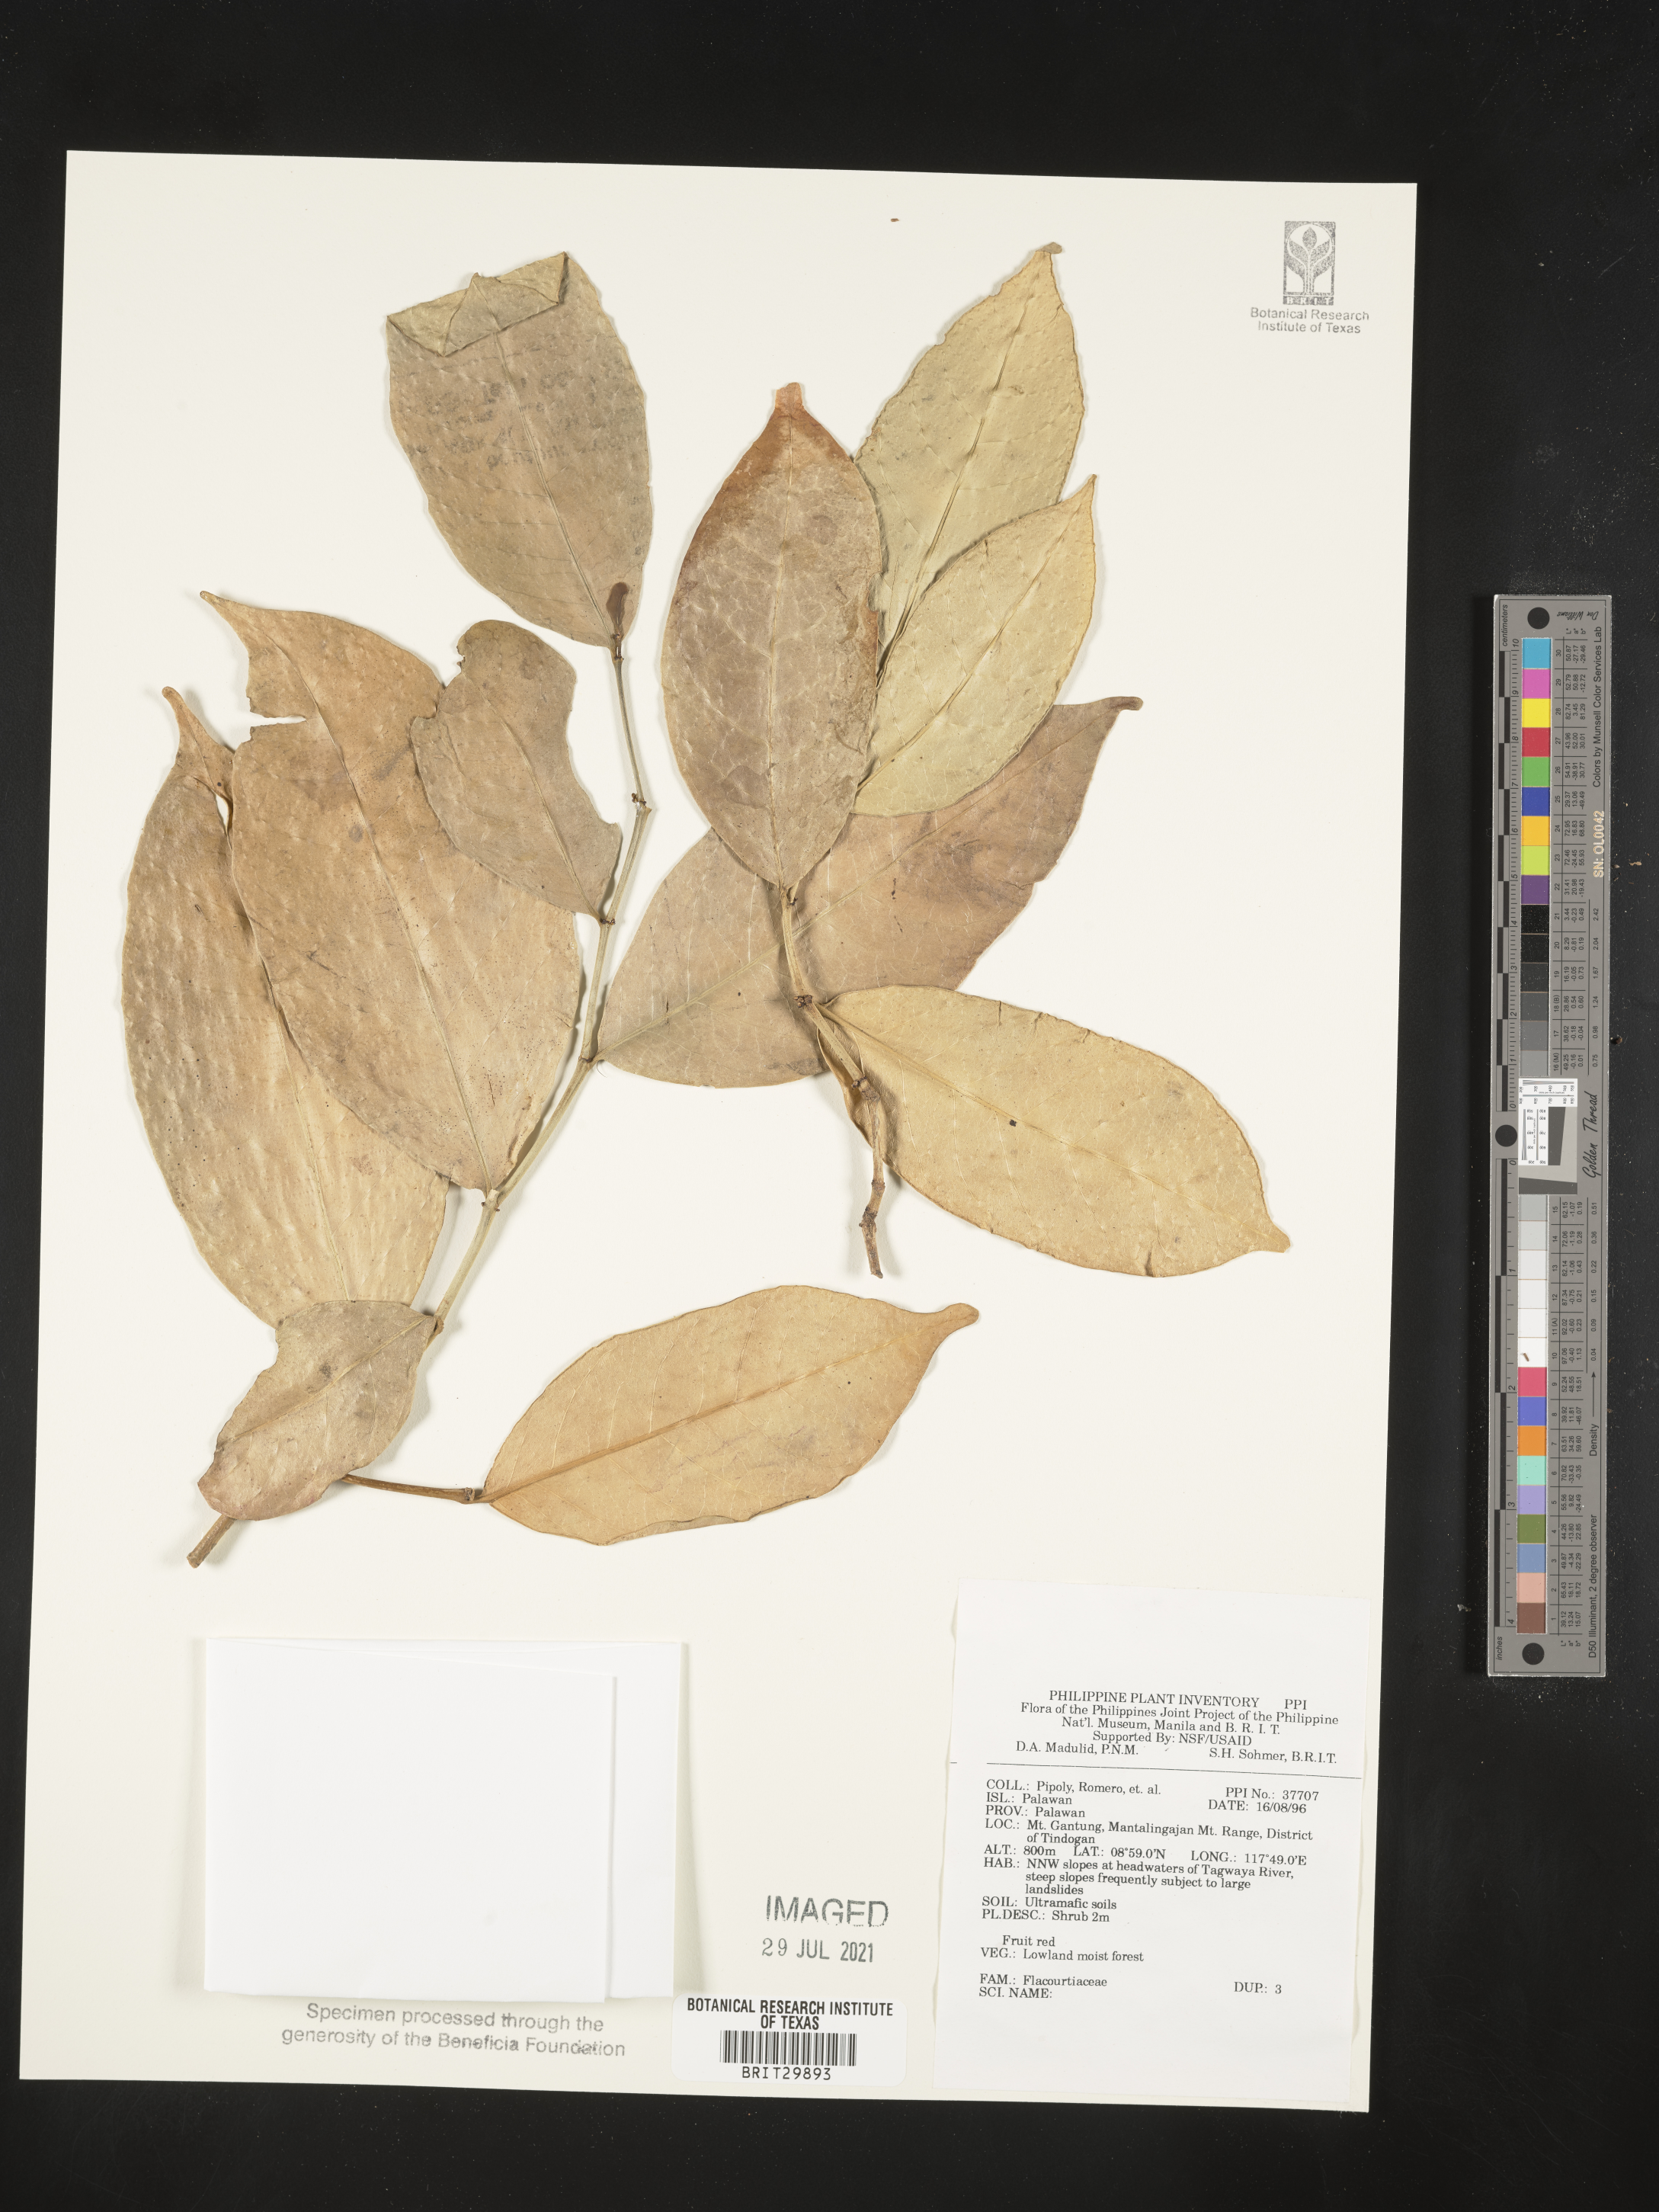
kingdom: Plantae
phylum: Tracheophyta
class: Magnoliopsida
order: Malpighiales
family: Flacourtiaceae
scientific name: Flacourtiaceae
